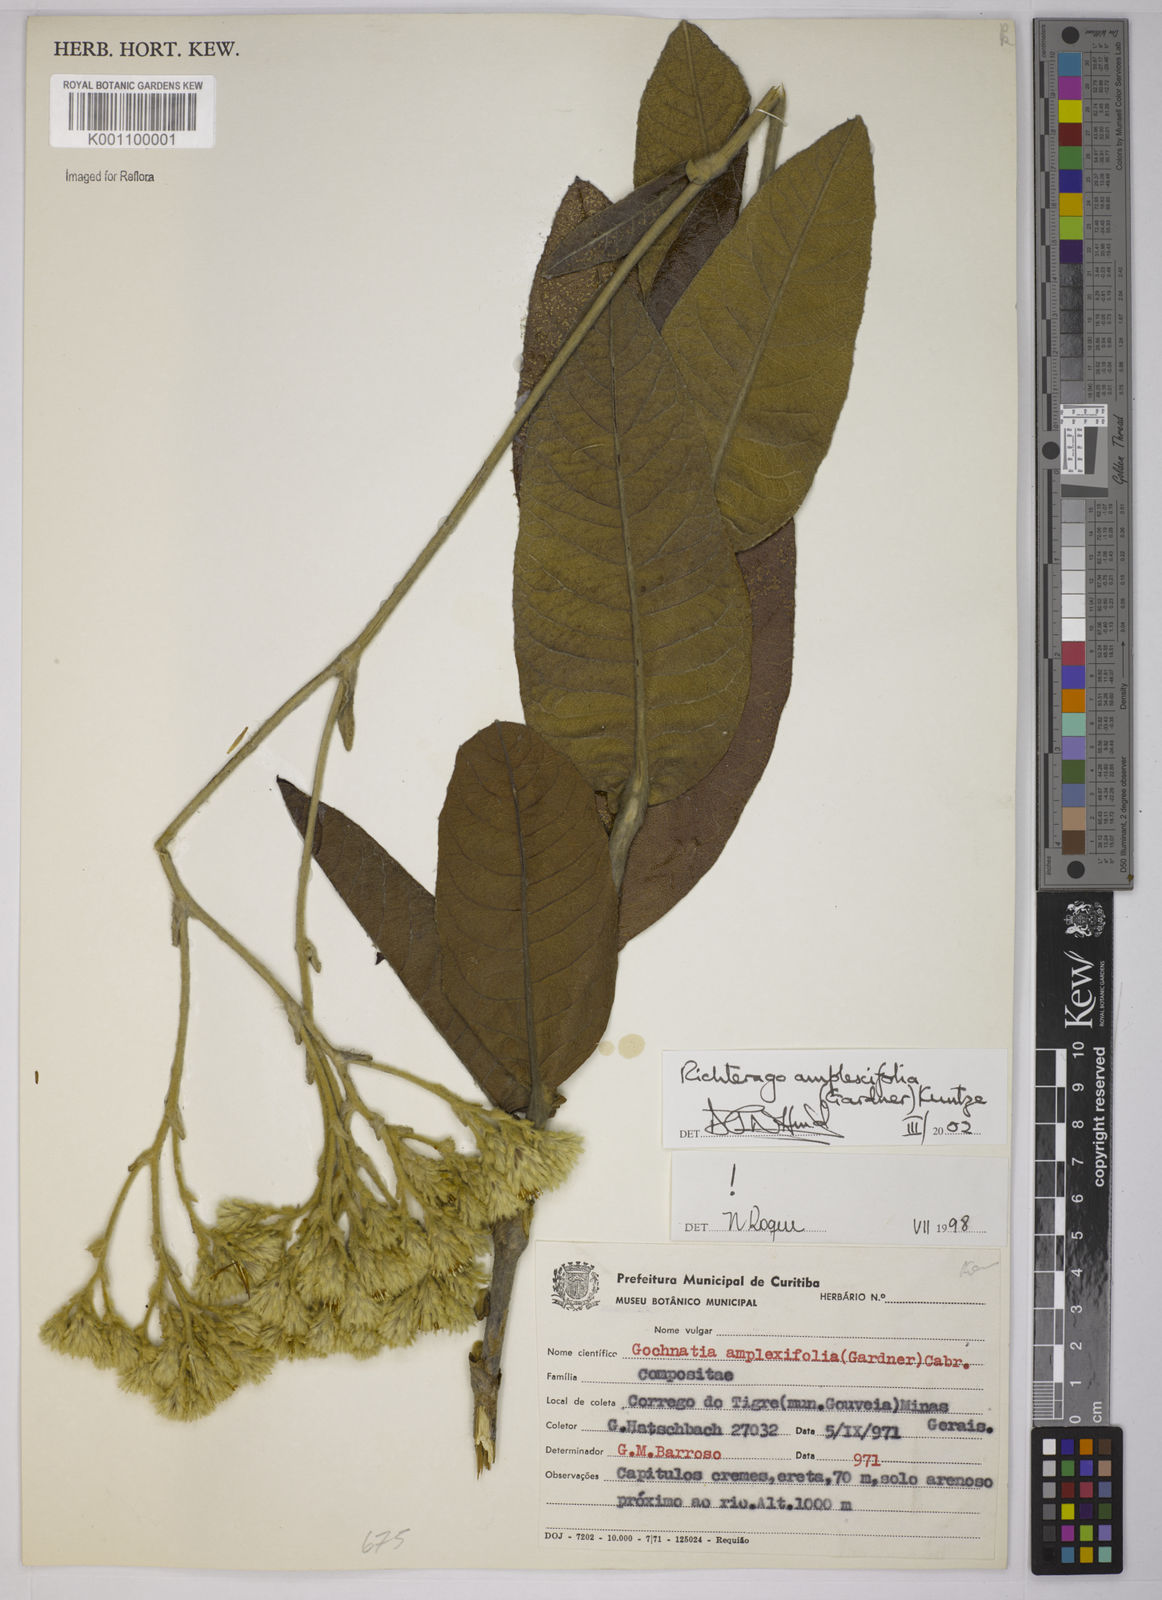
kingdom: Plantae
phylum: Tracheophyta
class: Magnoliopsida
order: Asterales
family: Asteraceae
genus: Richterago
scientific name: Richterago amplexifolia
